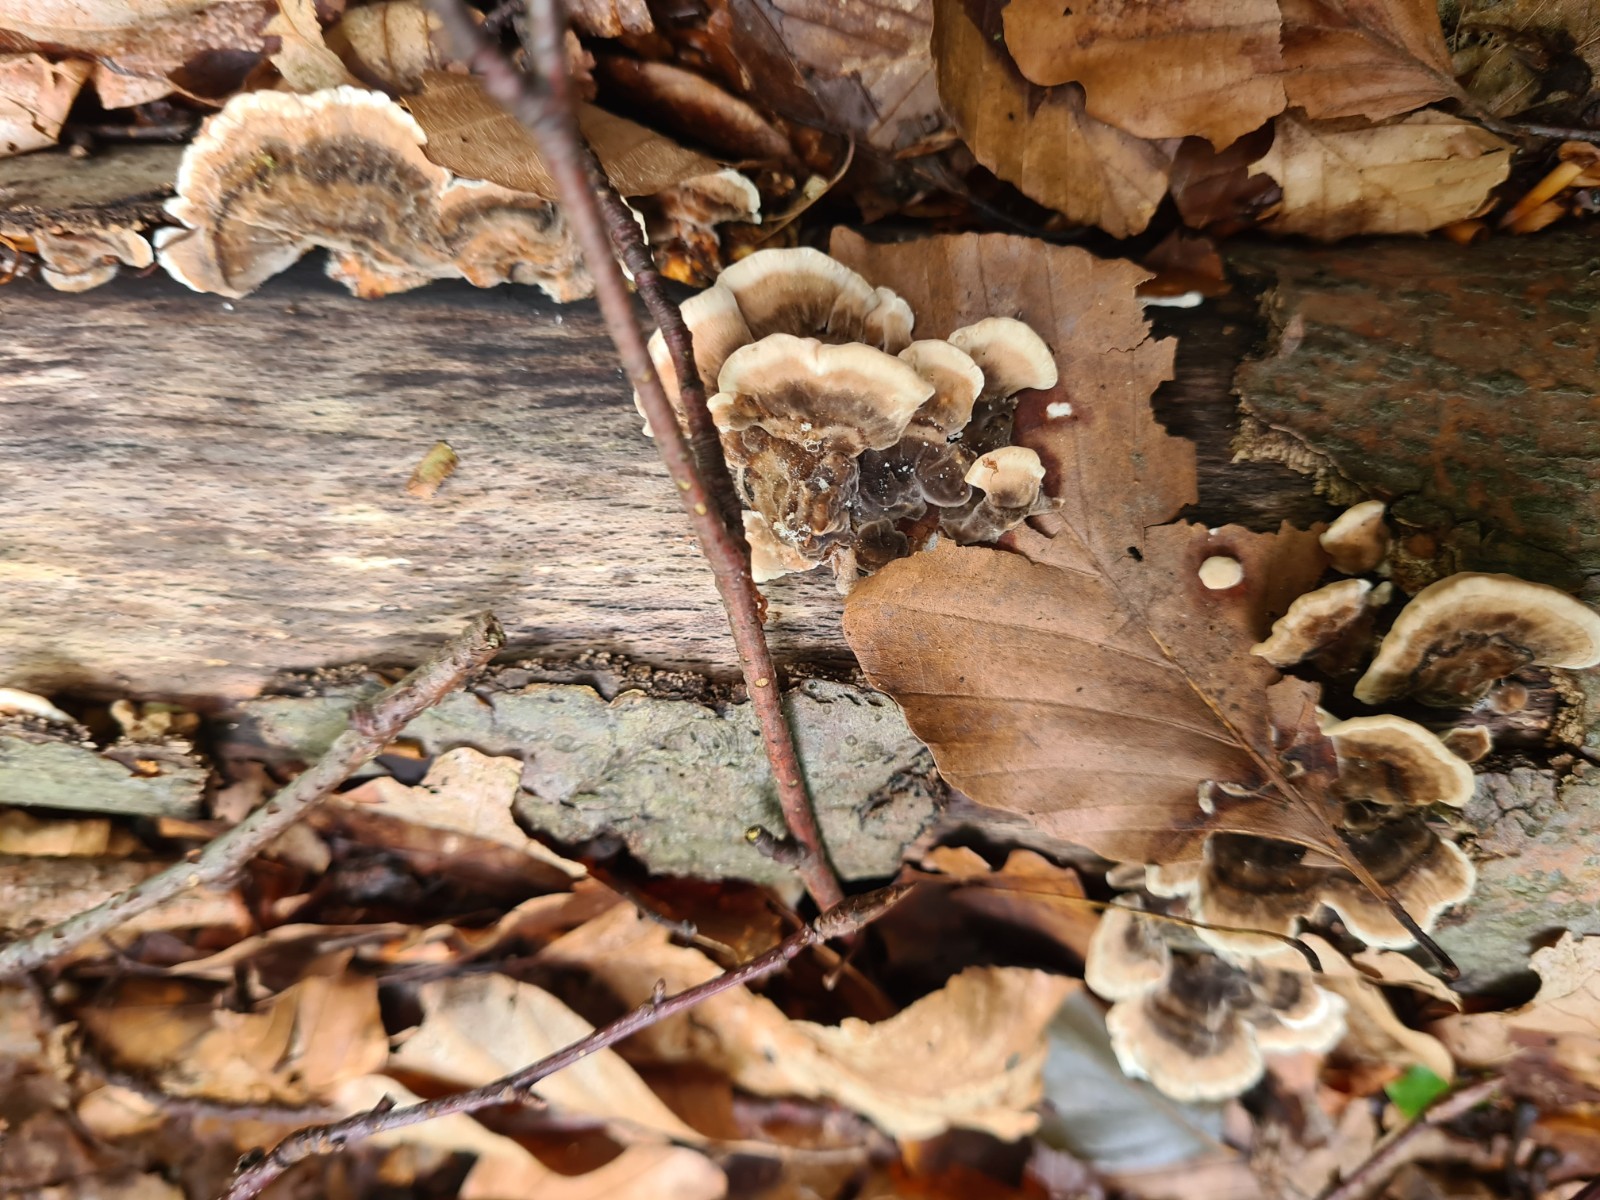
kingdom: Fungi
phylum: Basidiomycota
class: Agaricomycetes
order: Polyporales
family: Polyporaceae
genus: Trametes
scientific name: Trametes versicolor
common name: broget læderporesvamp
